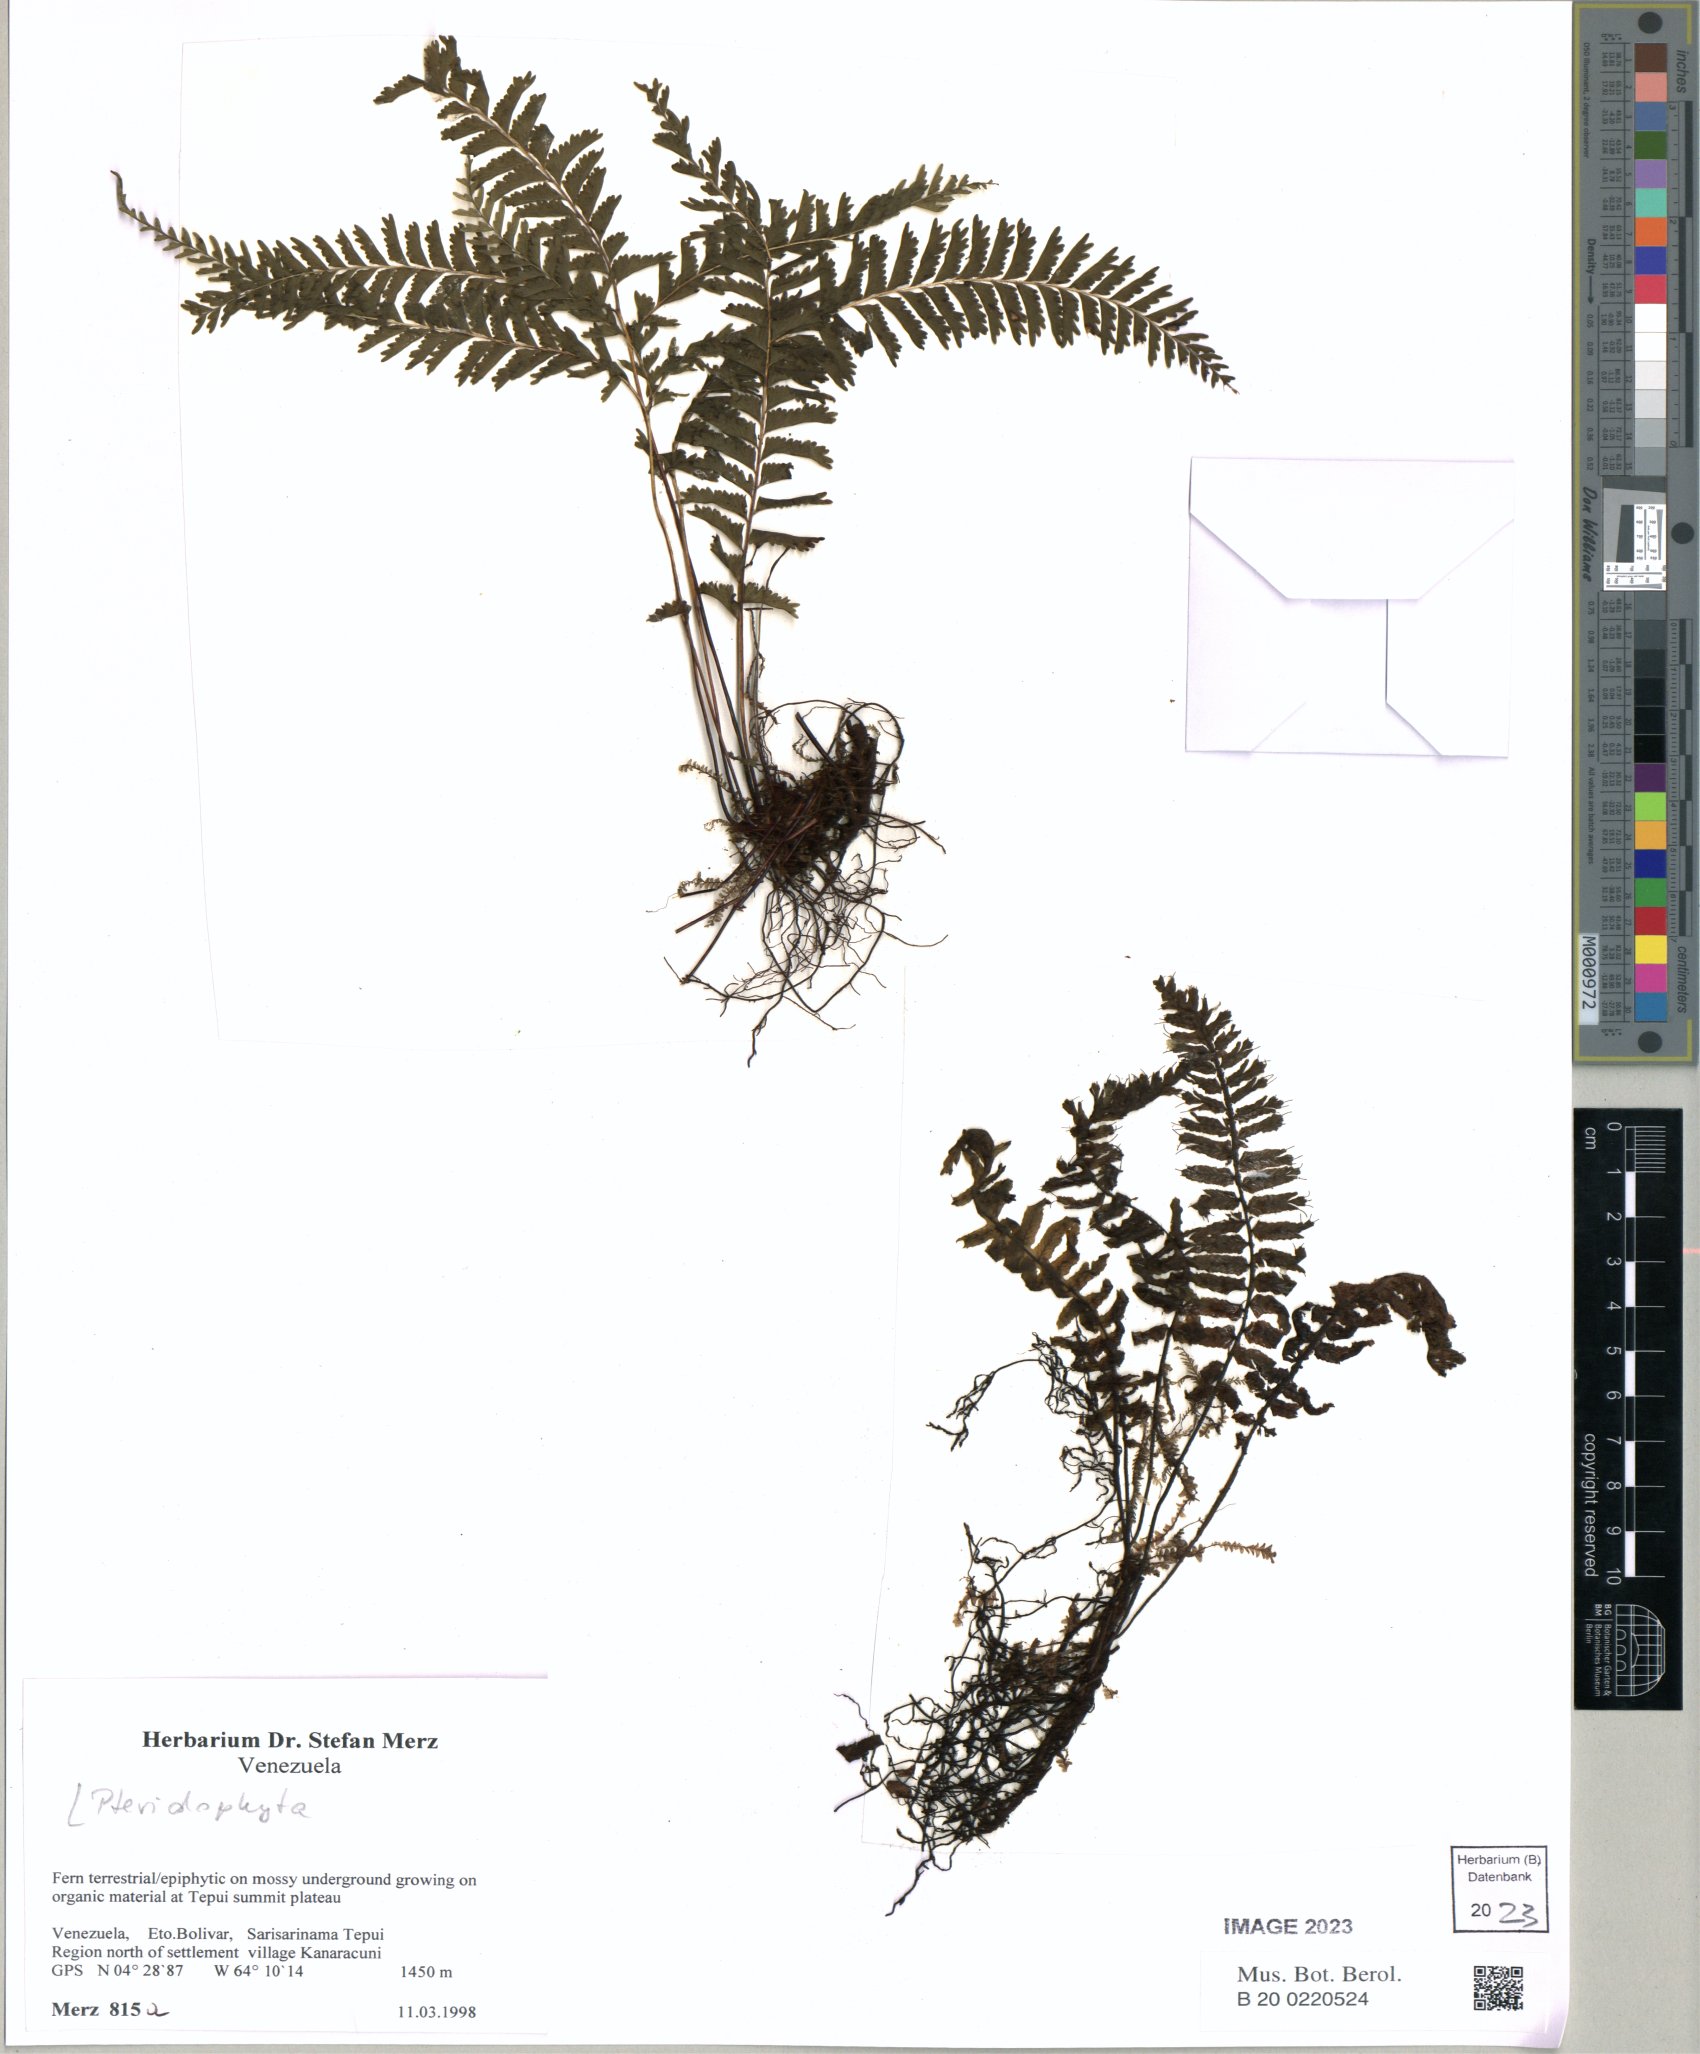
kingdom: Plantae
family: Pteridophyta
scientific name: Pteridophyta
